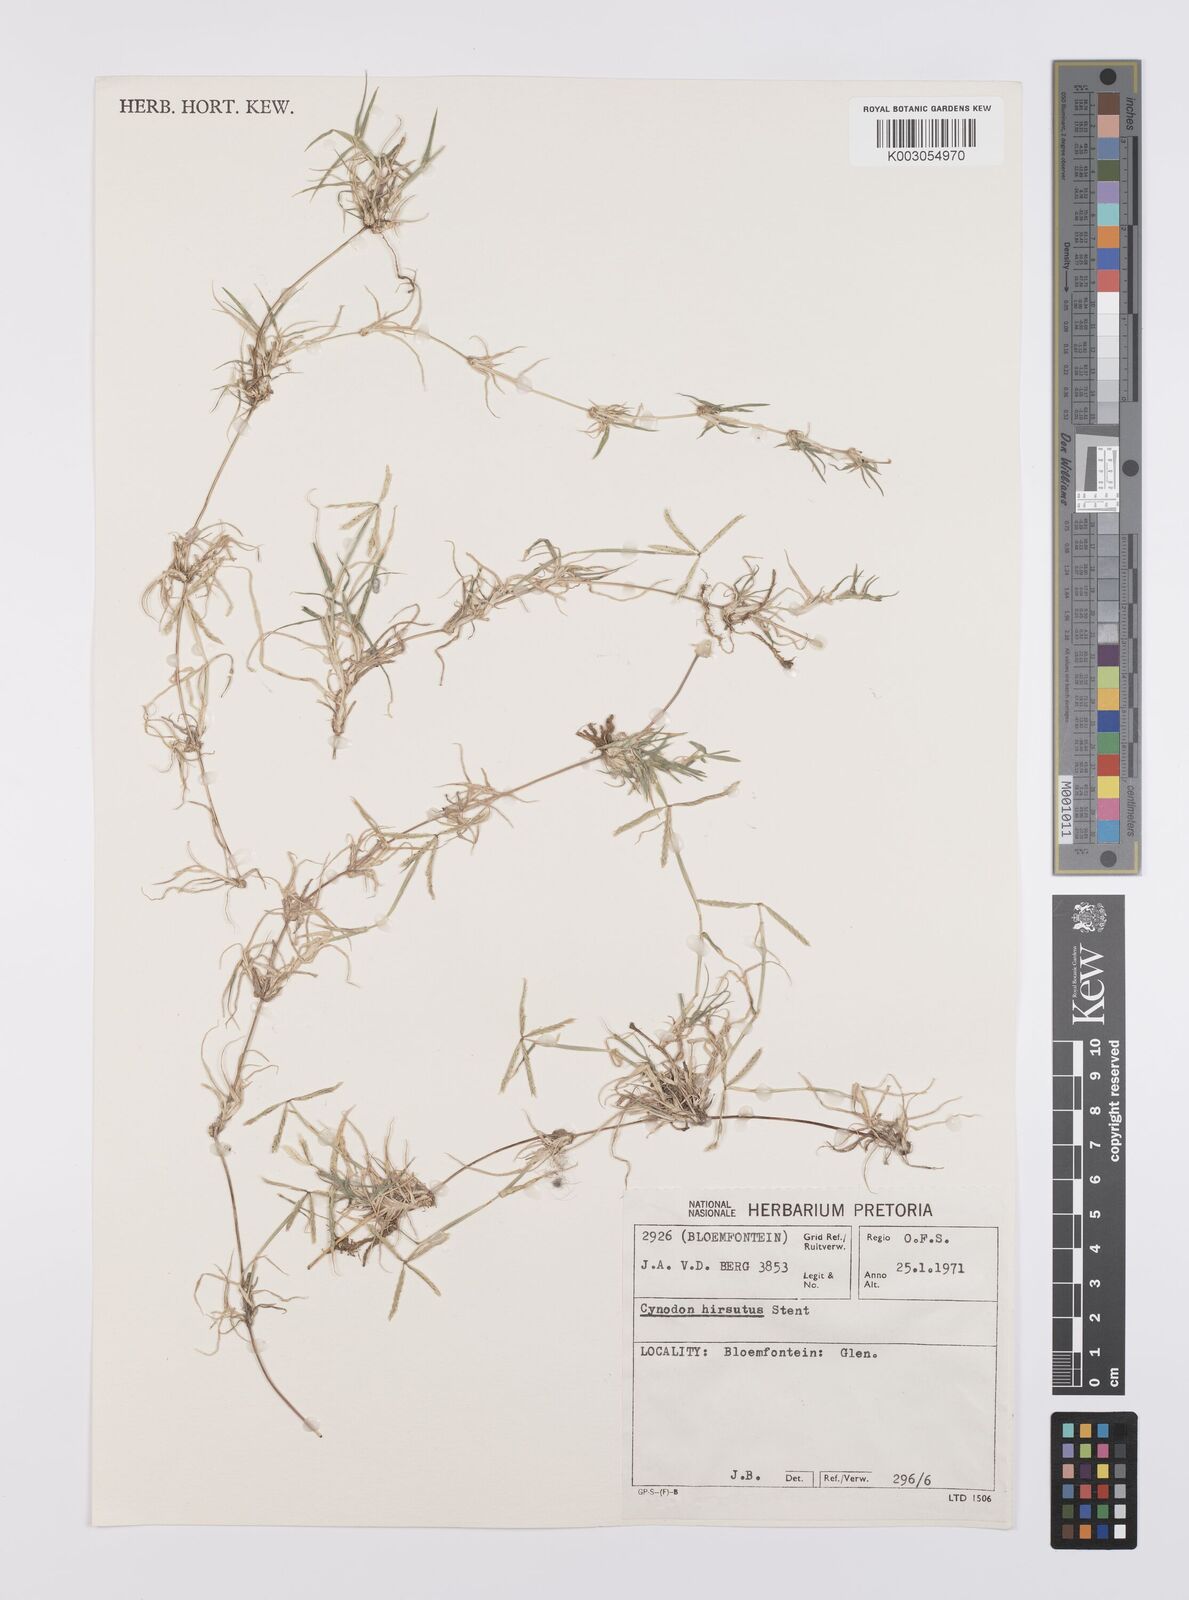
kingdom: Plantae
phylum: Tracheophyta
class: Liliopsida
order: Poales
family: Poaceae
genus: Cynodon
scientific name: Cynodon incompletus
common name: African bermuda-grass
